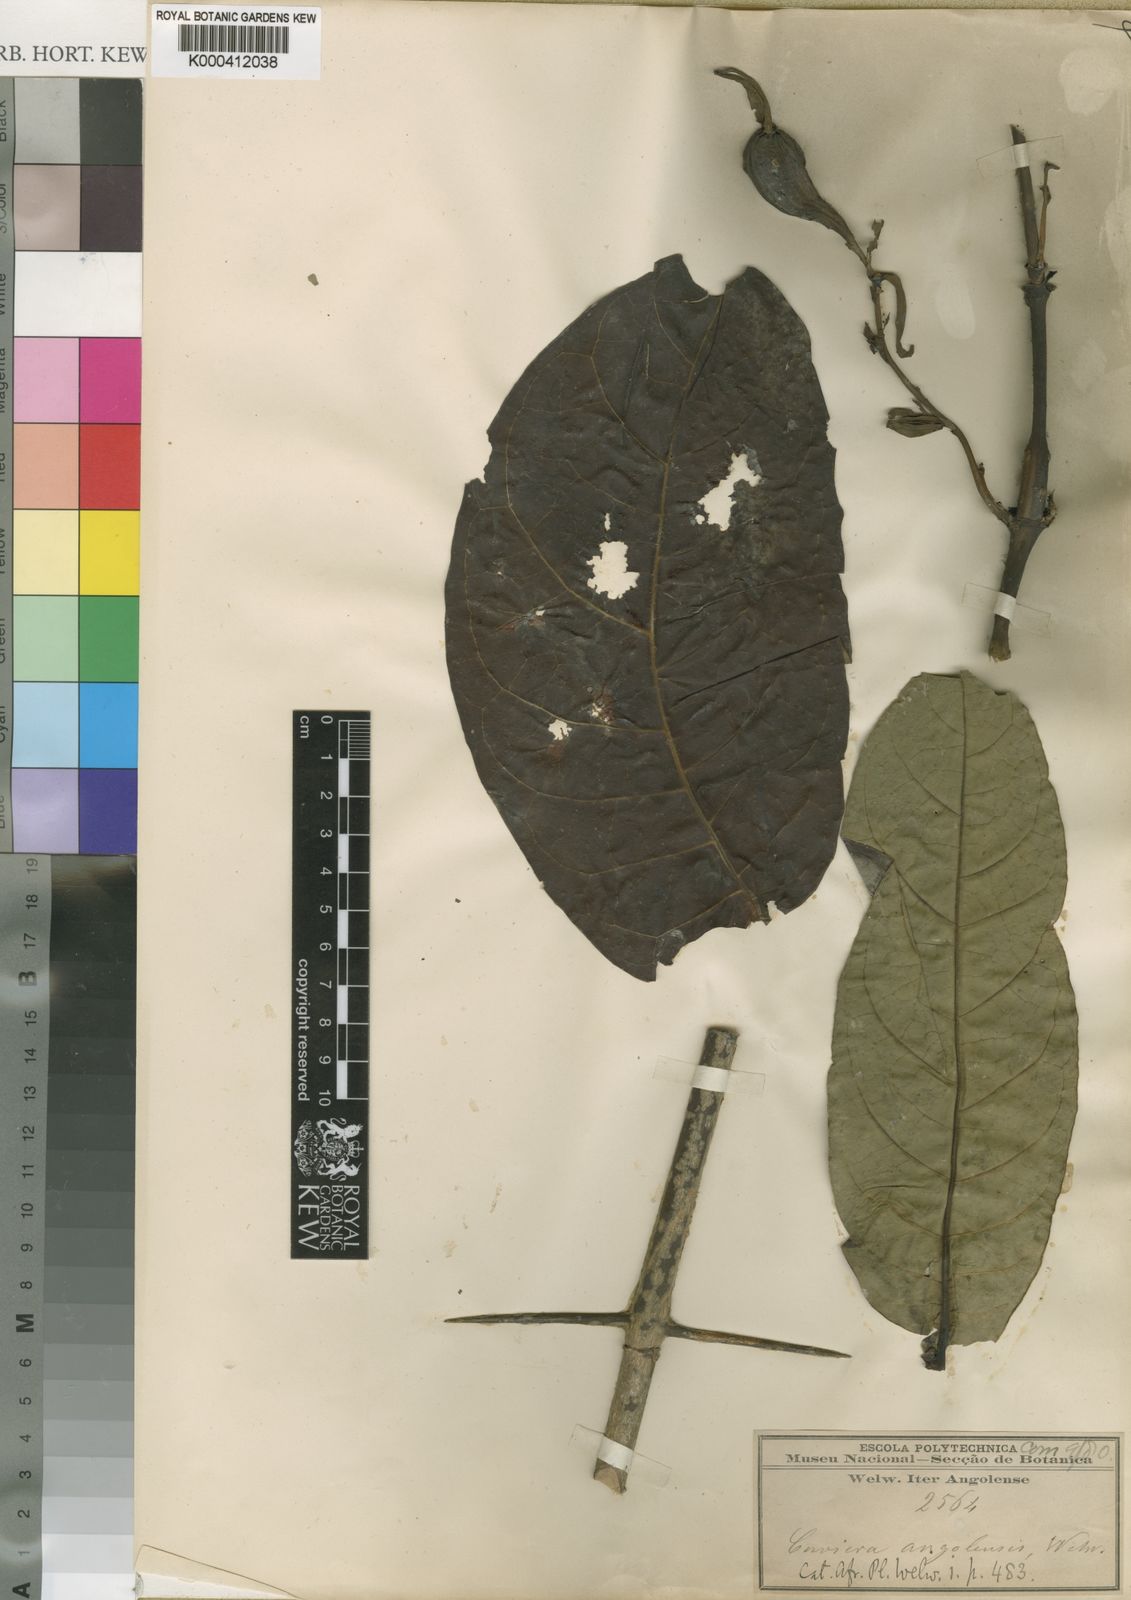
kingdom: Plantae
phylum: Tracheophyta
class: Magnoliopsida
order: Gentianales
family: Rubiaceae
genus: Cuviera
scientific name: Cuviera angolensis
